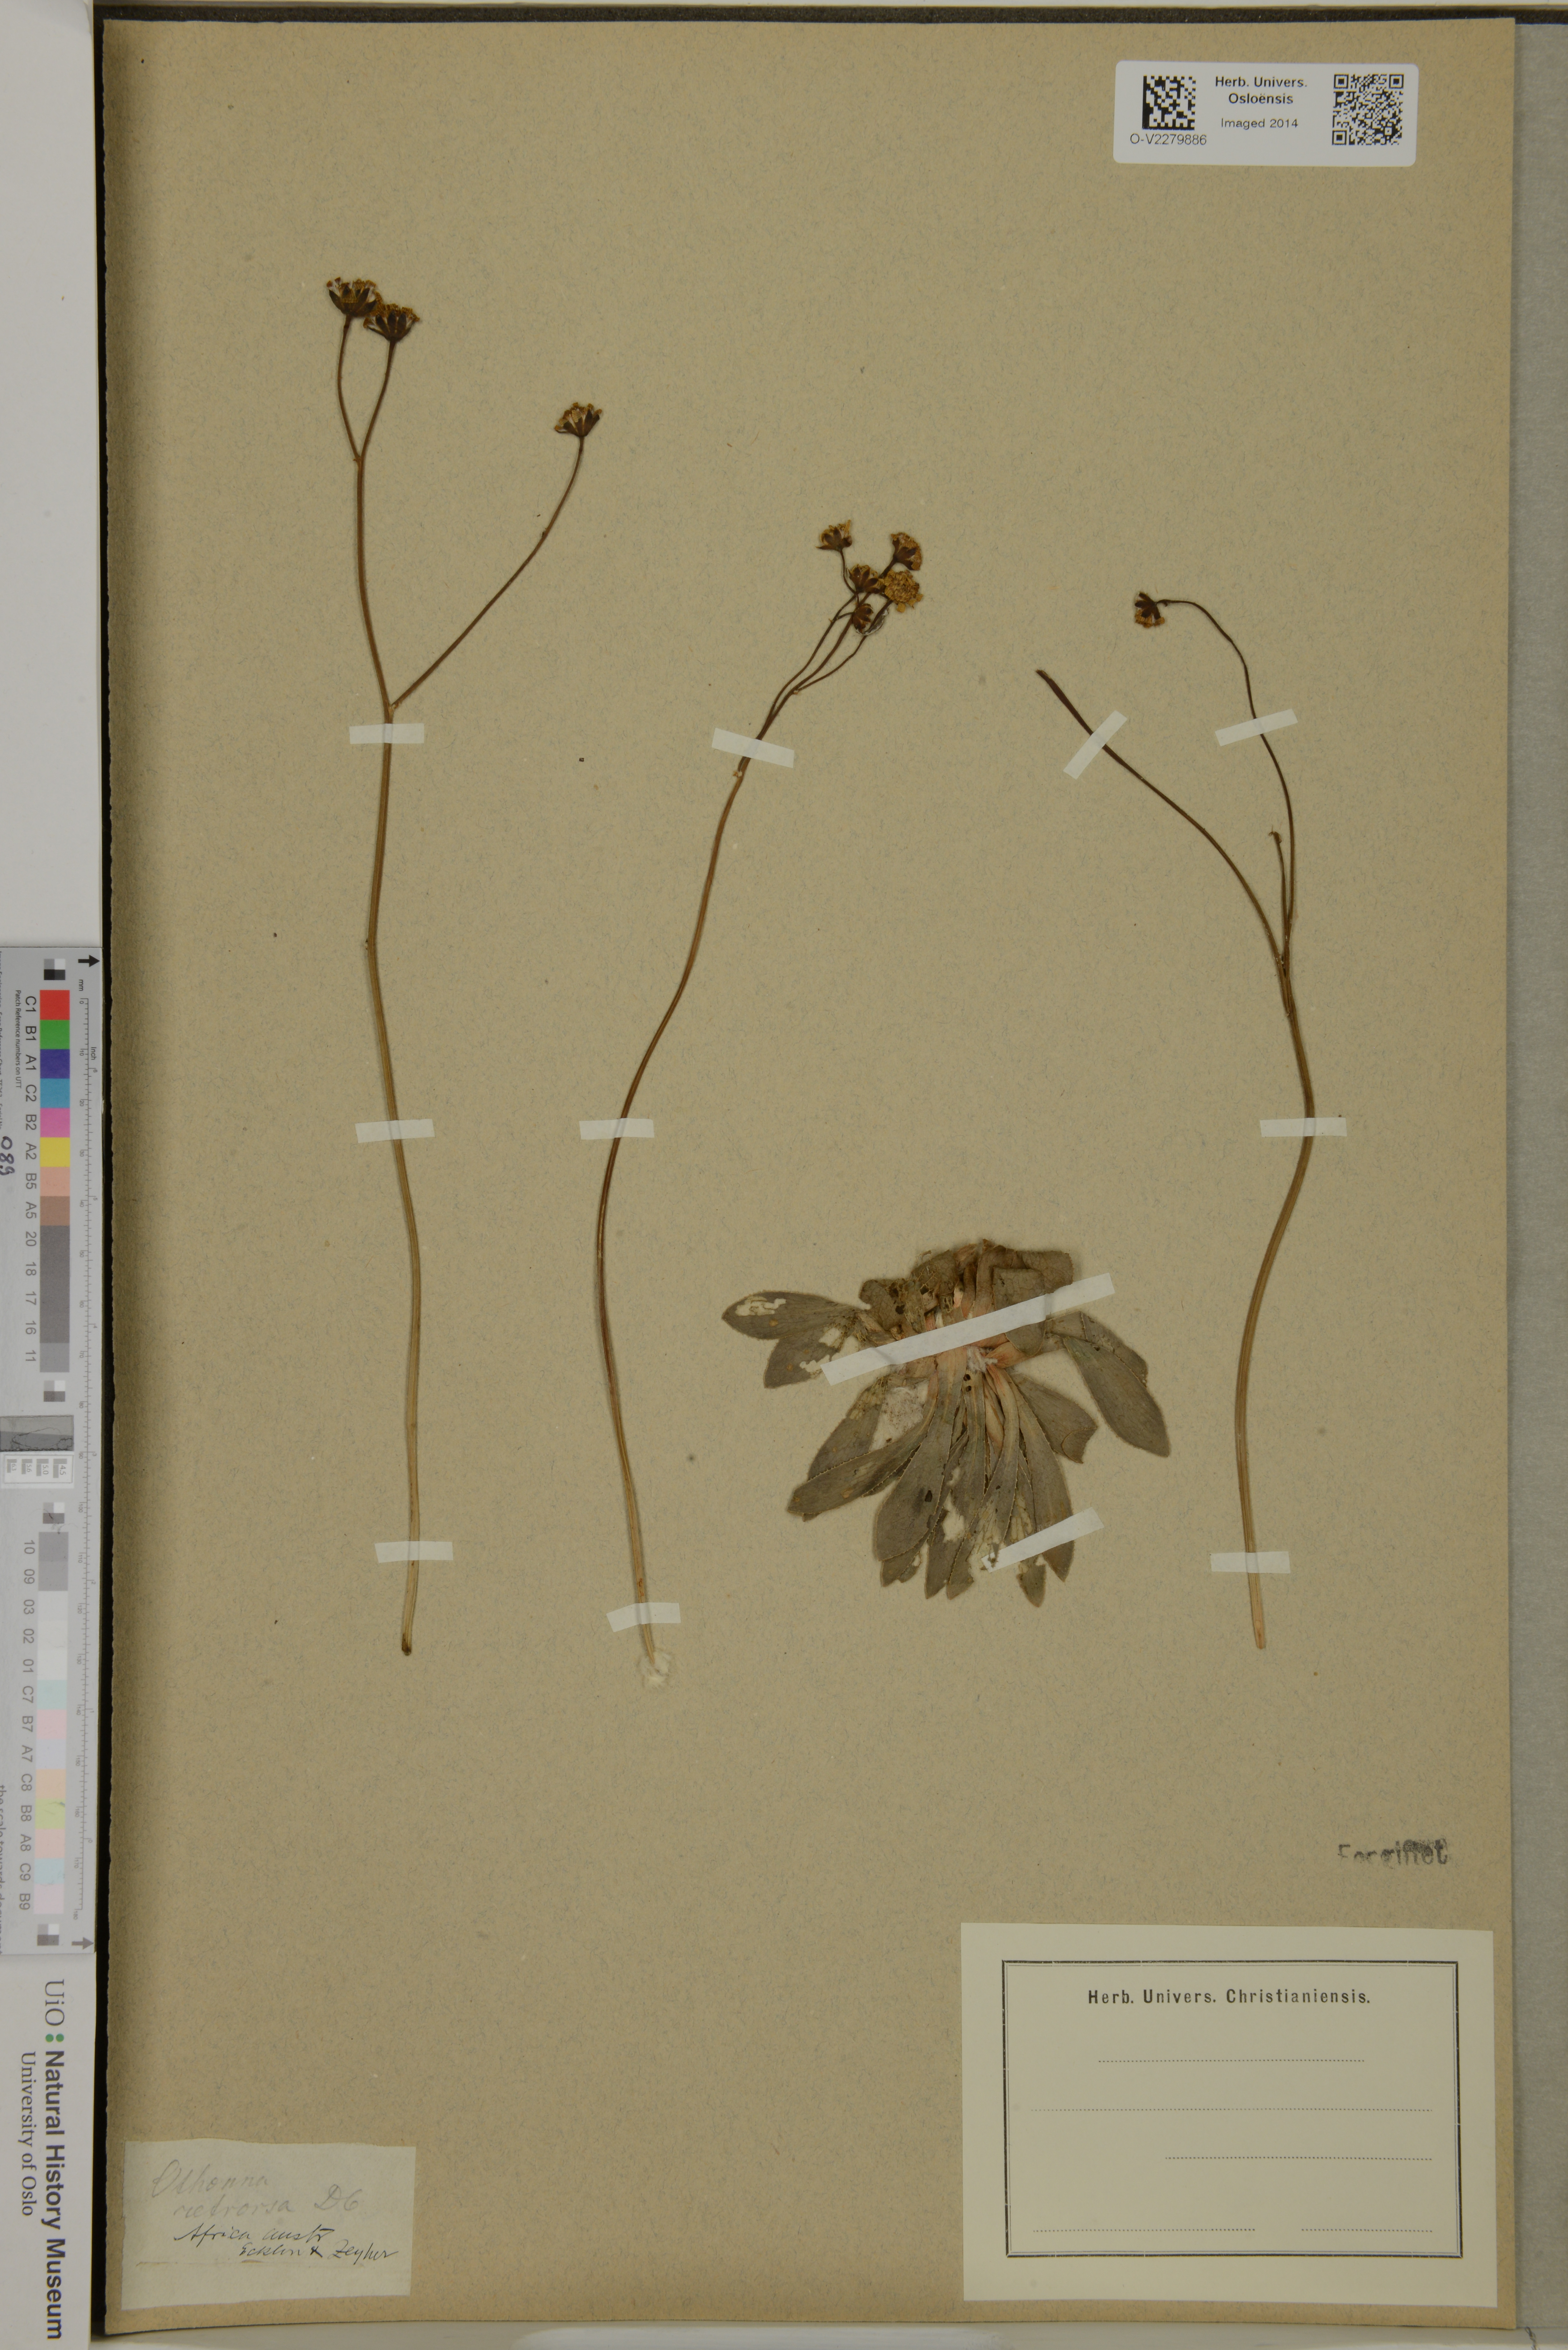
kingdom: Plantae
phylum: Tracheophyta
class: Magnoliopsida
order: Asterales
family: Asteraceae
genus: Othonna
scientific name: Othonna retrorsa
